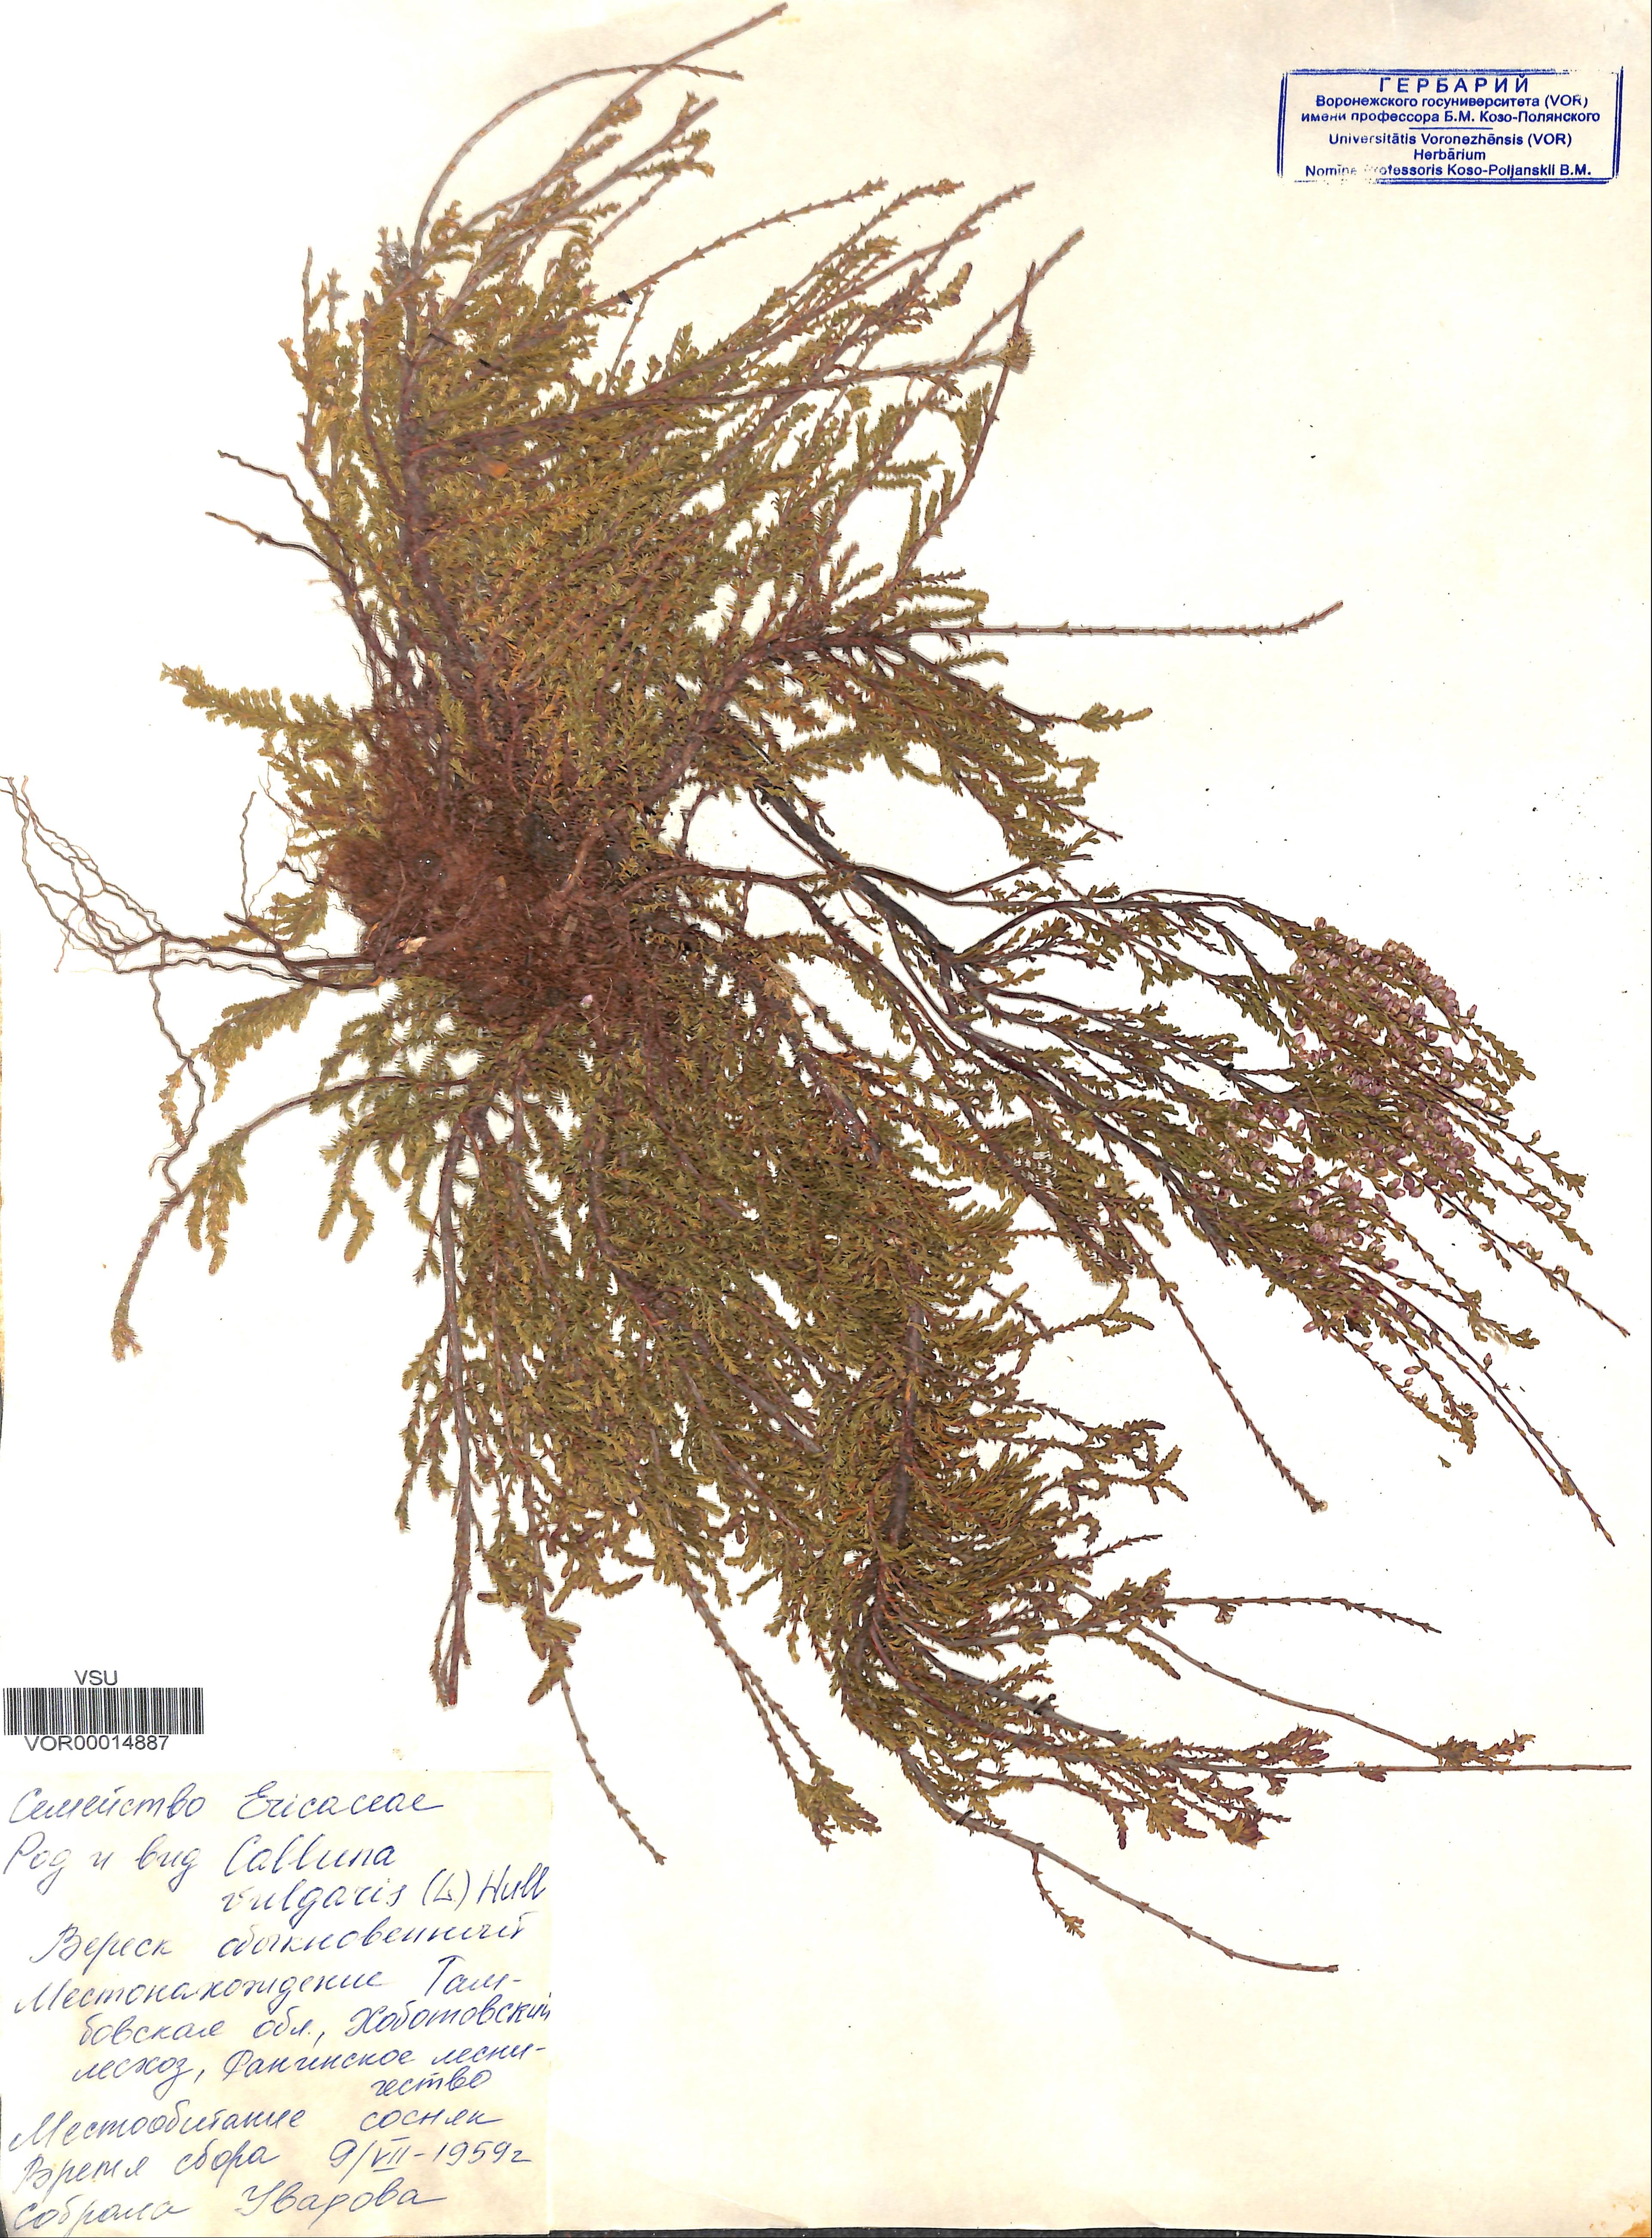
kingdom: Plantae
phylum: Tracheophyta
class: Magnoliopsida
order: Ericales
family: Ericaceae
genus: Calluna
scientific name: Calluna vulgaris
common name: Heather
